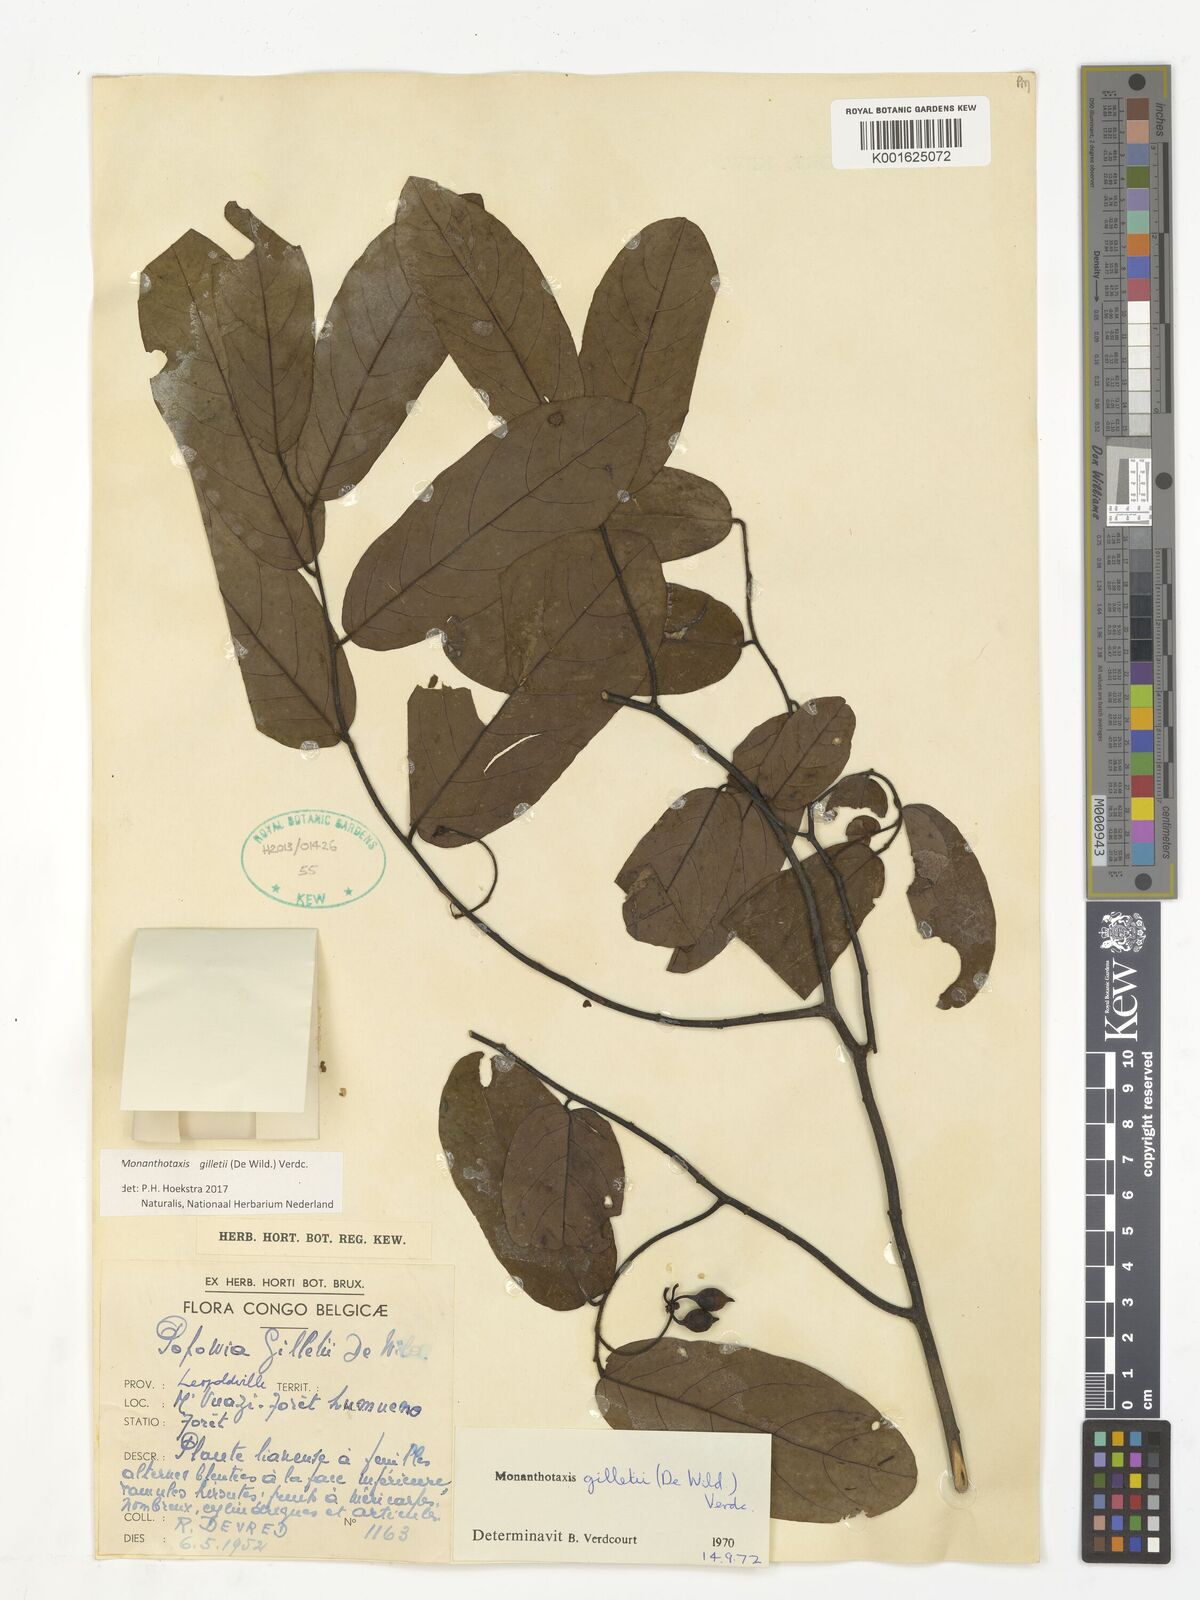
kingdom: Plantae
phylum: Tracheophyta
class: Magnoliopsida
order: Magnoliales
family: Annonaceae
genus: Monanthotaxis
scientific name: Monanthotaxis gilletii
